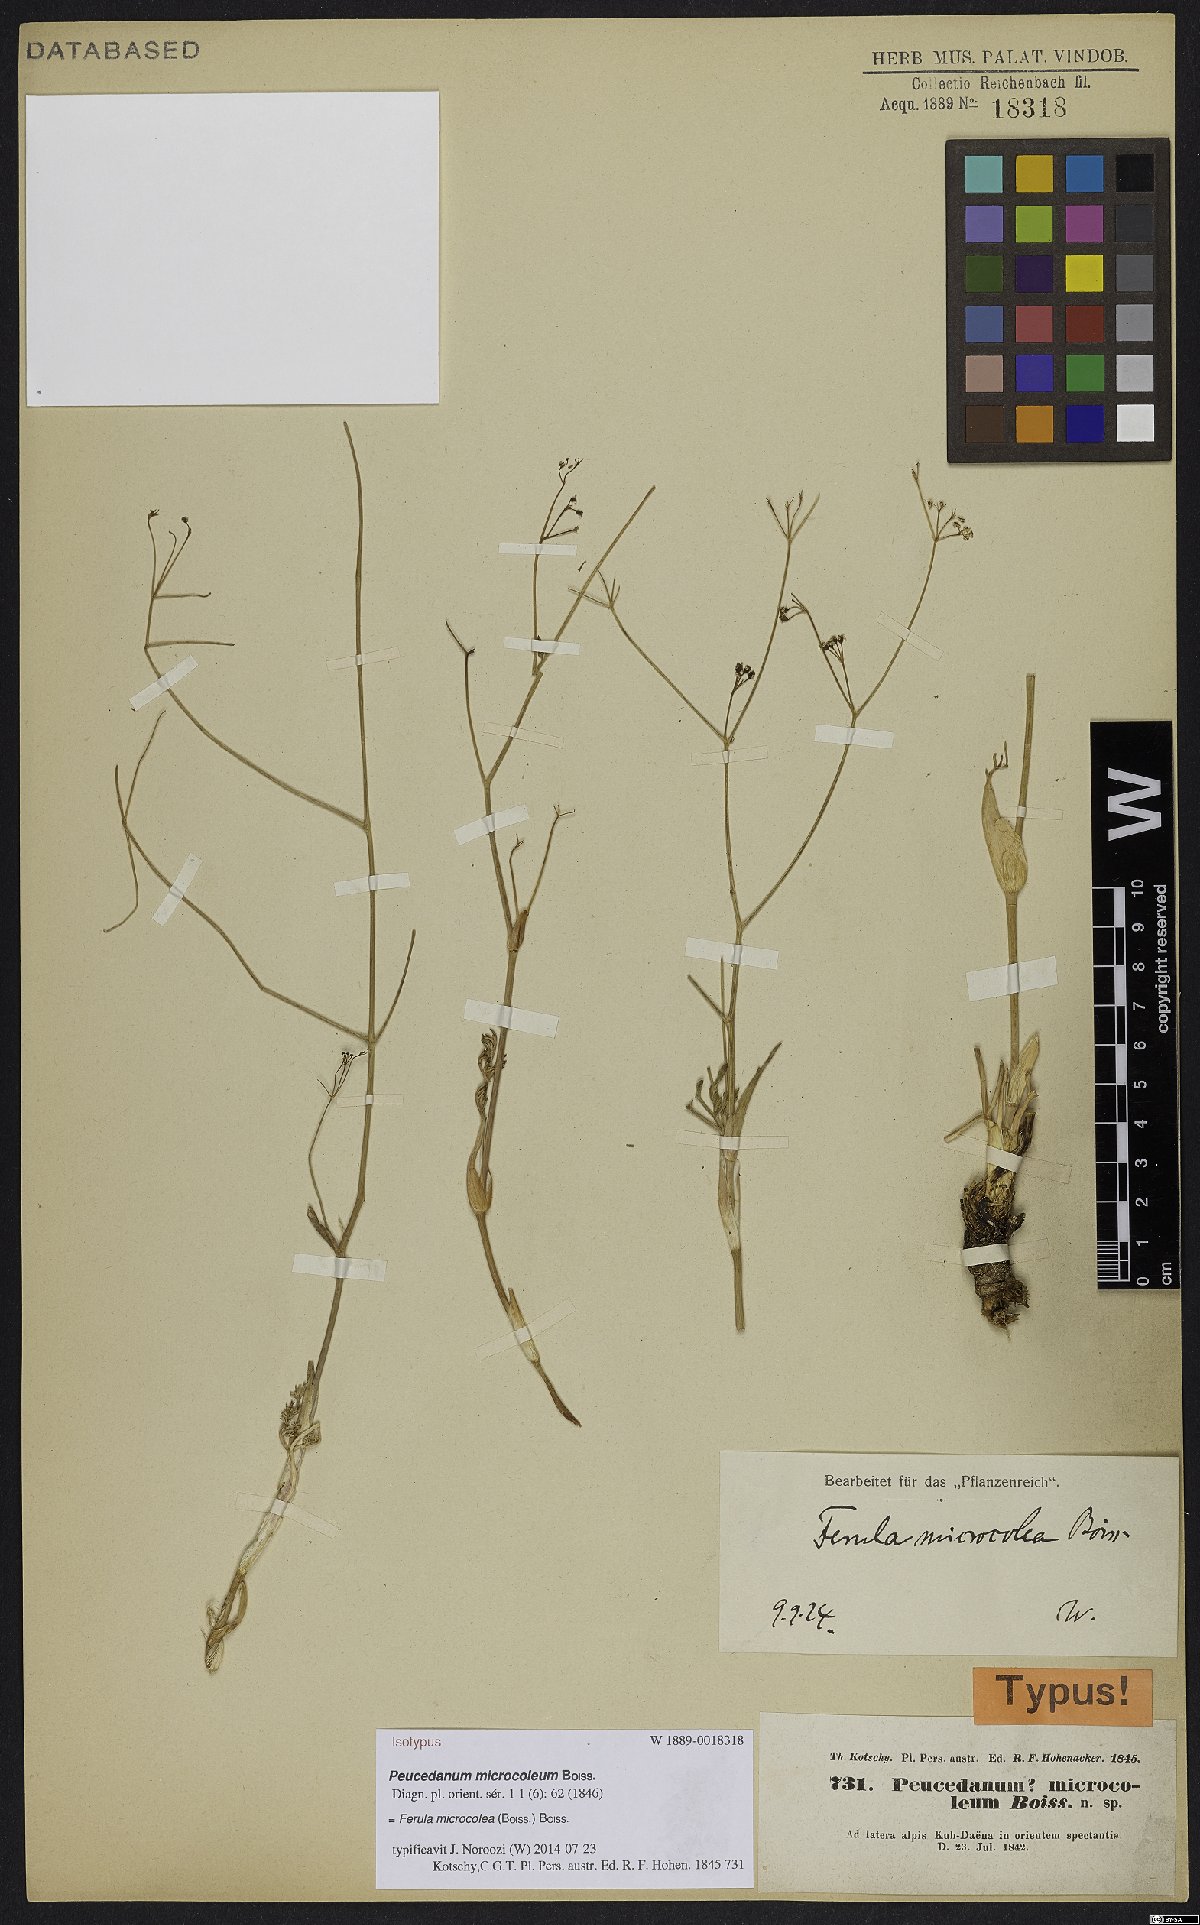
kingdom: Plantae
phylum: Tracheophyta
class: Magnoliopsida
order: Apiales
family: Apiaceae
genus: Ferula
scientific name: Ferula microcolea
